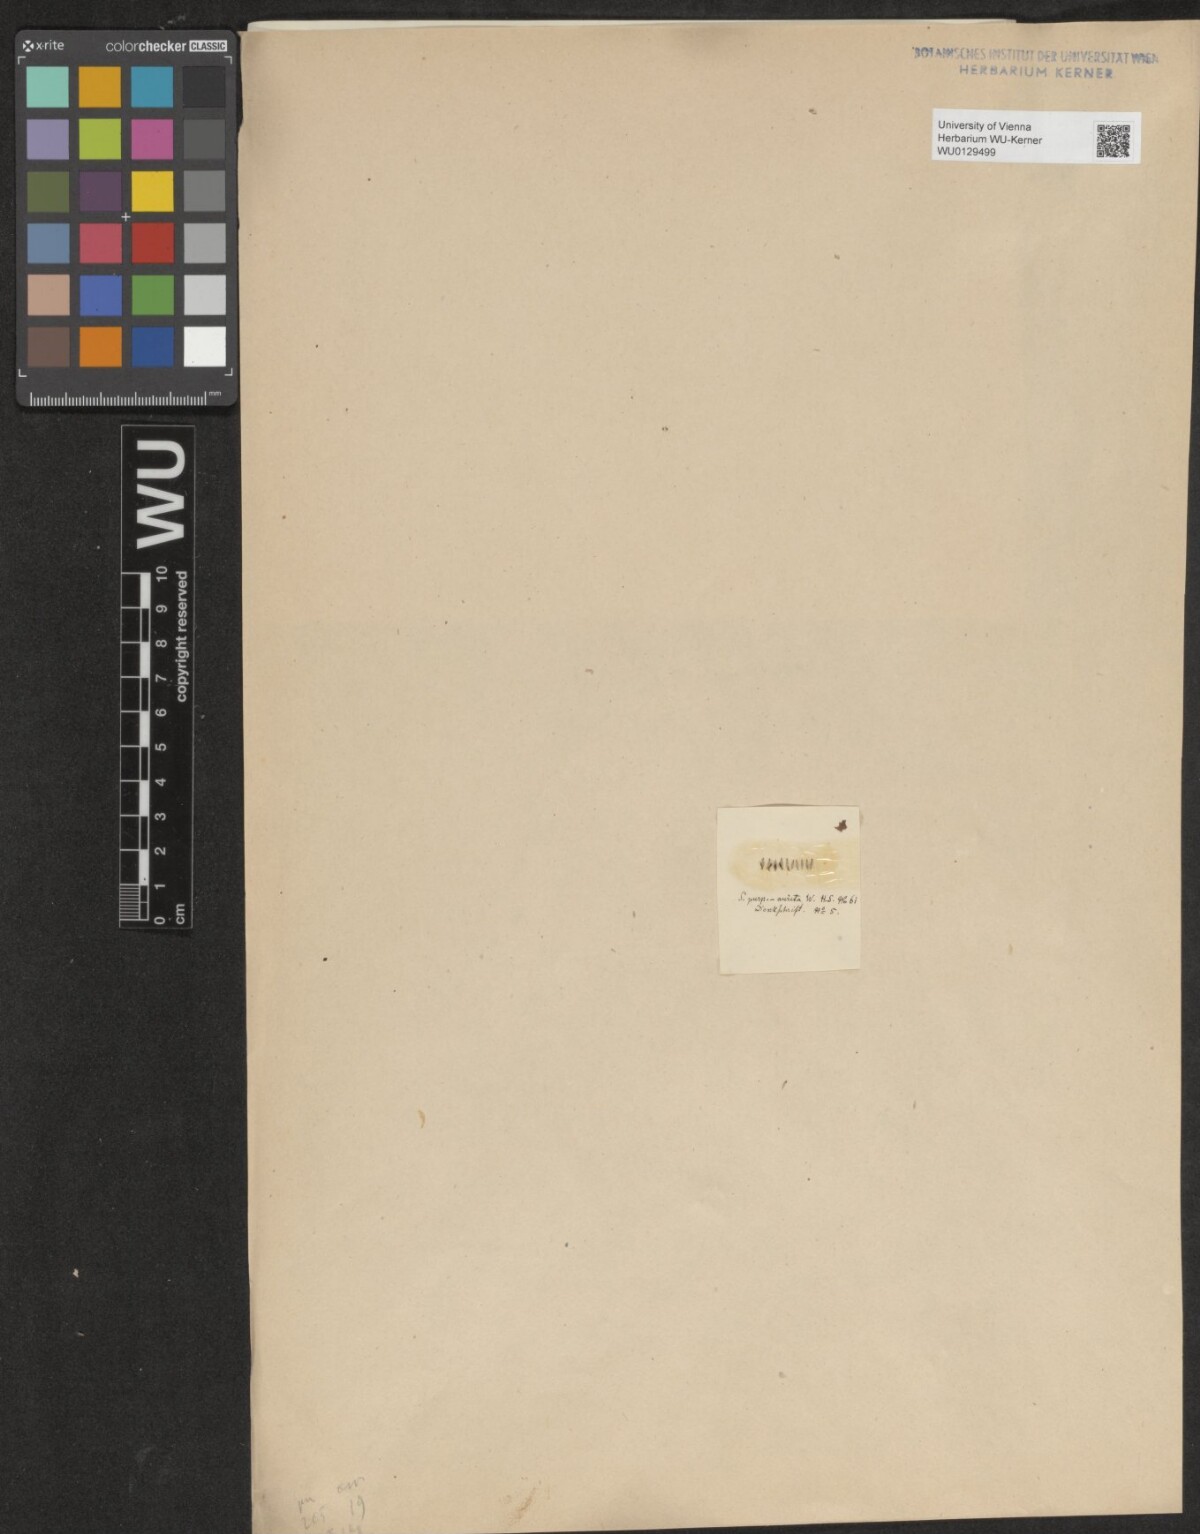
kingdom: Plantae
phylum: Tracheophyta
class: Magnoliopsida
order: Malpighiales
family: Salicaceae
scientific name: Salicaceae
